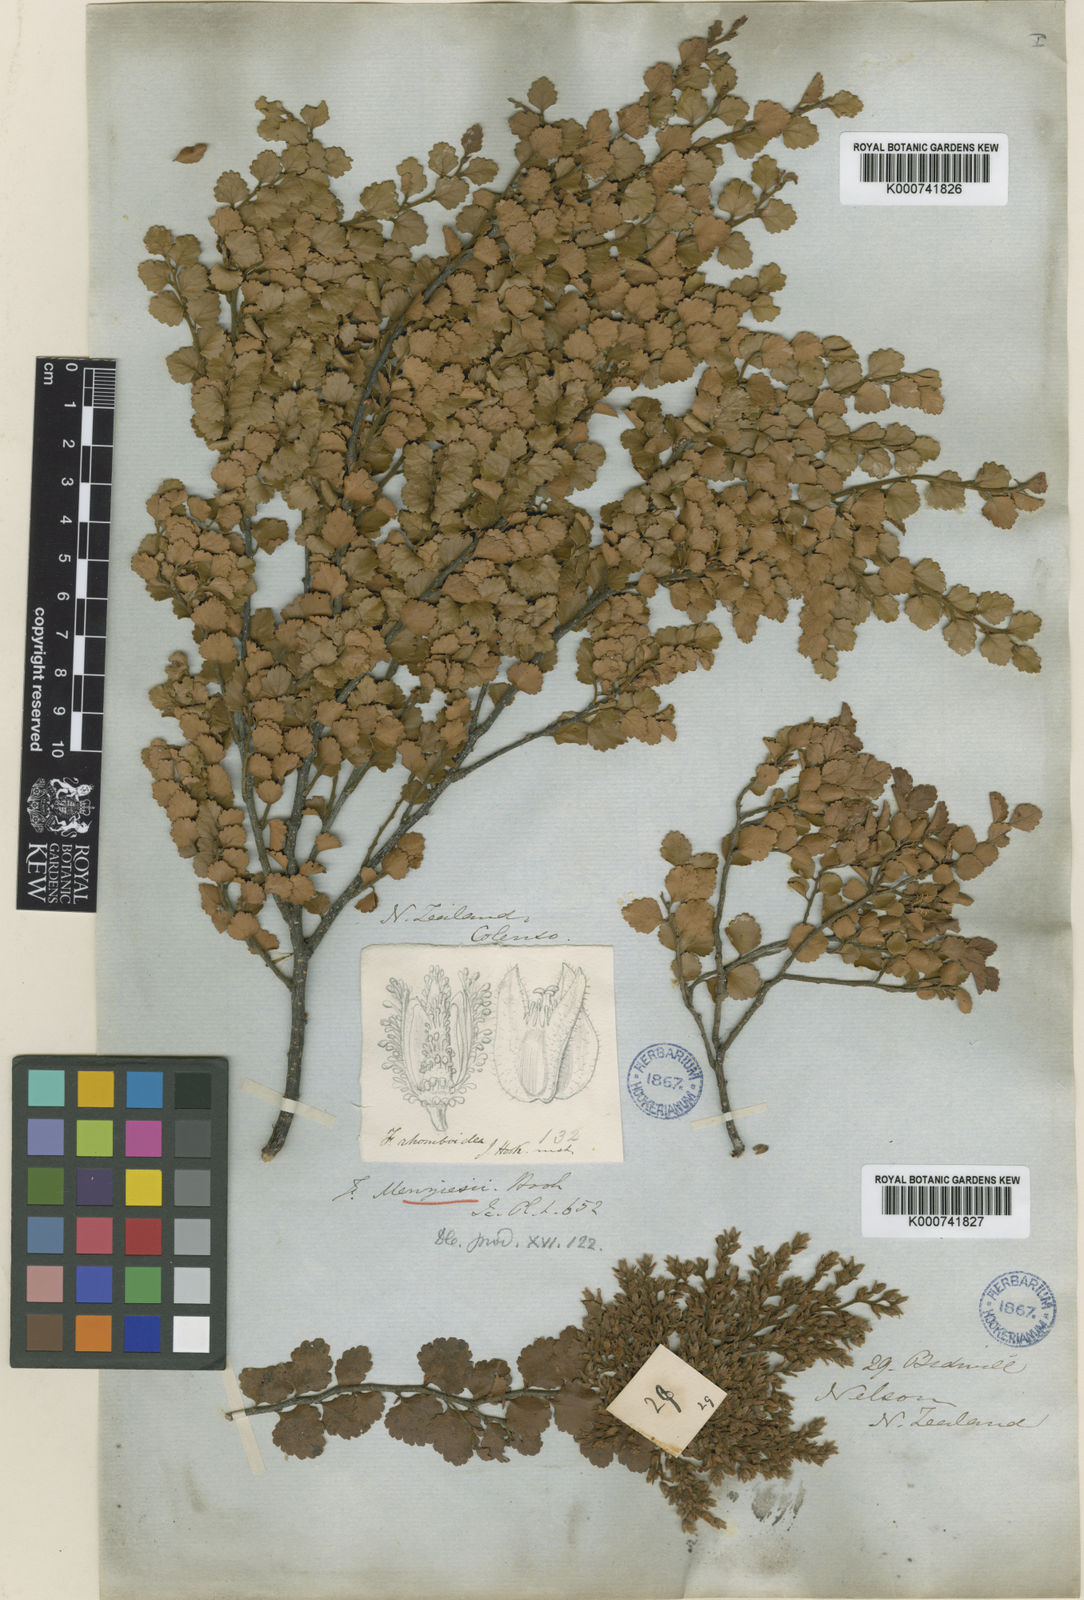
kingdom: Plantae
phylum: Tracheophyta
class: Magnoliopsida
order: Fagales
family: Nothofagaceae
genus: Nothofagus
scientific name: Nothofagus menziesii
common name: Silver beech
